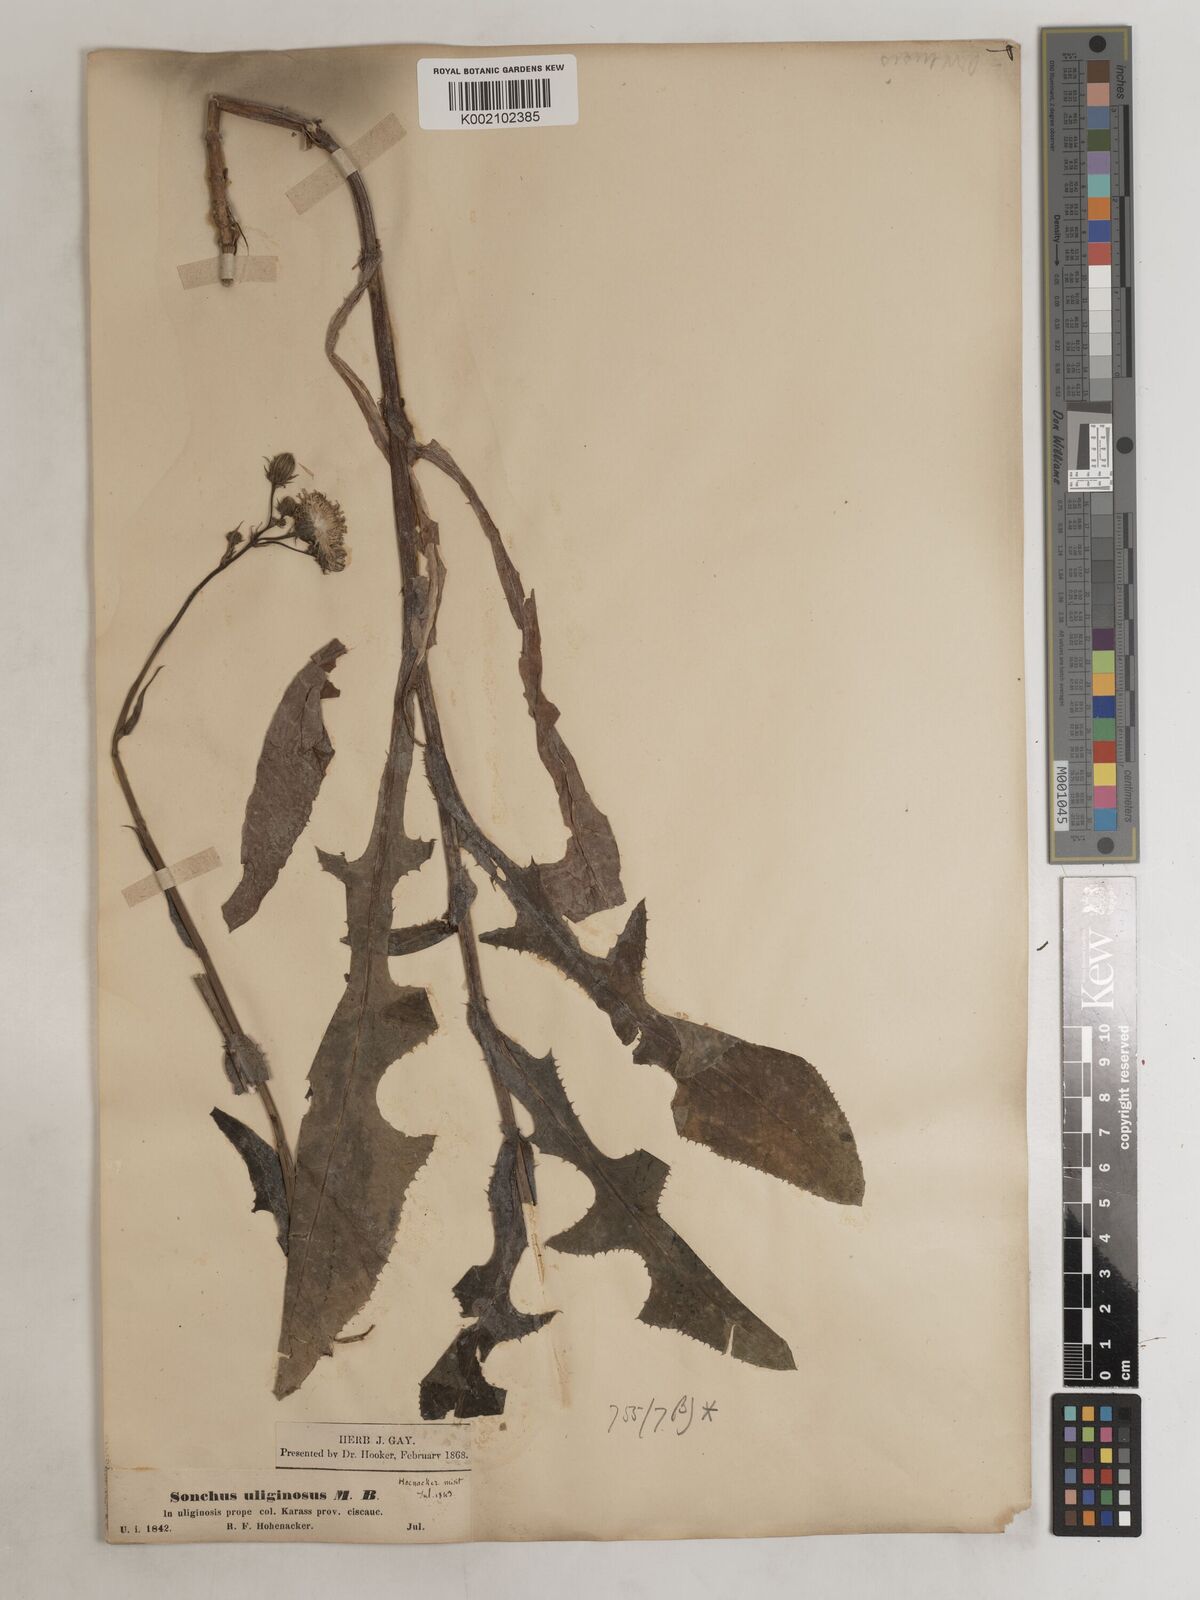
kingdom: Plantae
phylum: Tracheophyta
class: Magnoliopsida
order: Asterales
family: Asteraceae
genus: Sonchus
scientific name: Sonchus arvensis
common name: Perennial sow-thistle
